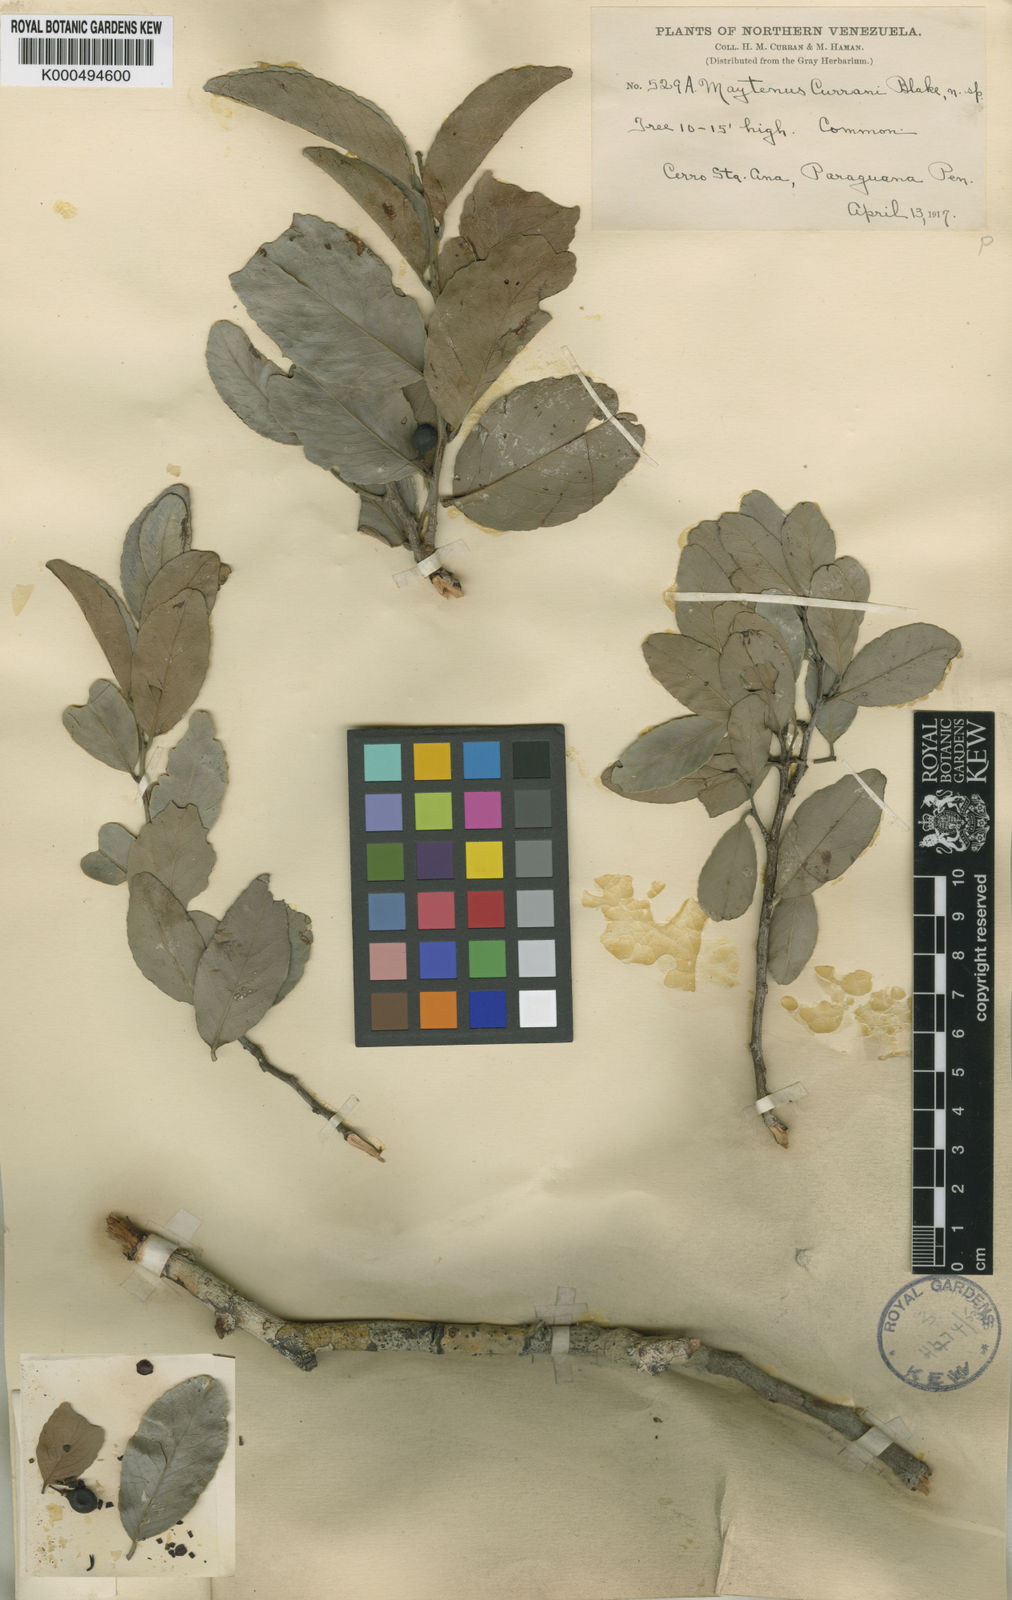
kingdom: Plantae
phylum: Tracheophyta
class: Magnoliopsida
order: Celastrales
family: Celastraceae
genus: Maytenus
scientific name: Maytenus curranii
